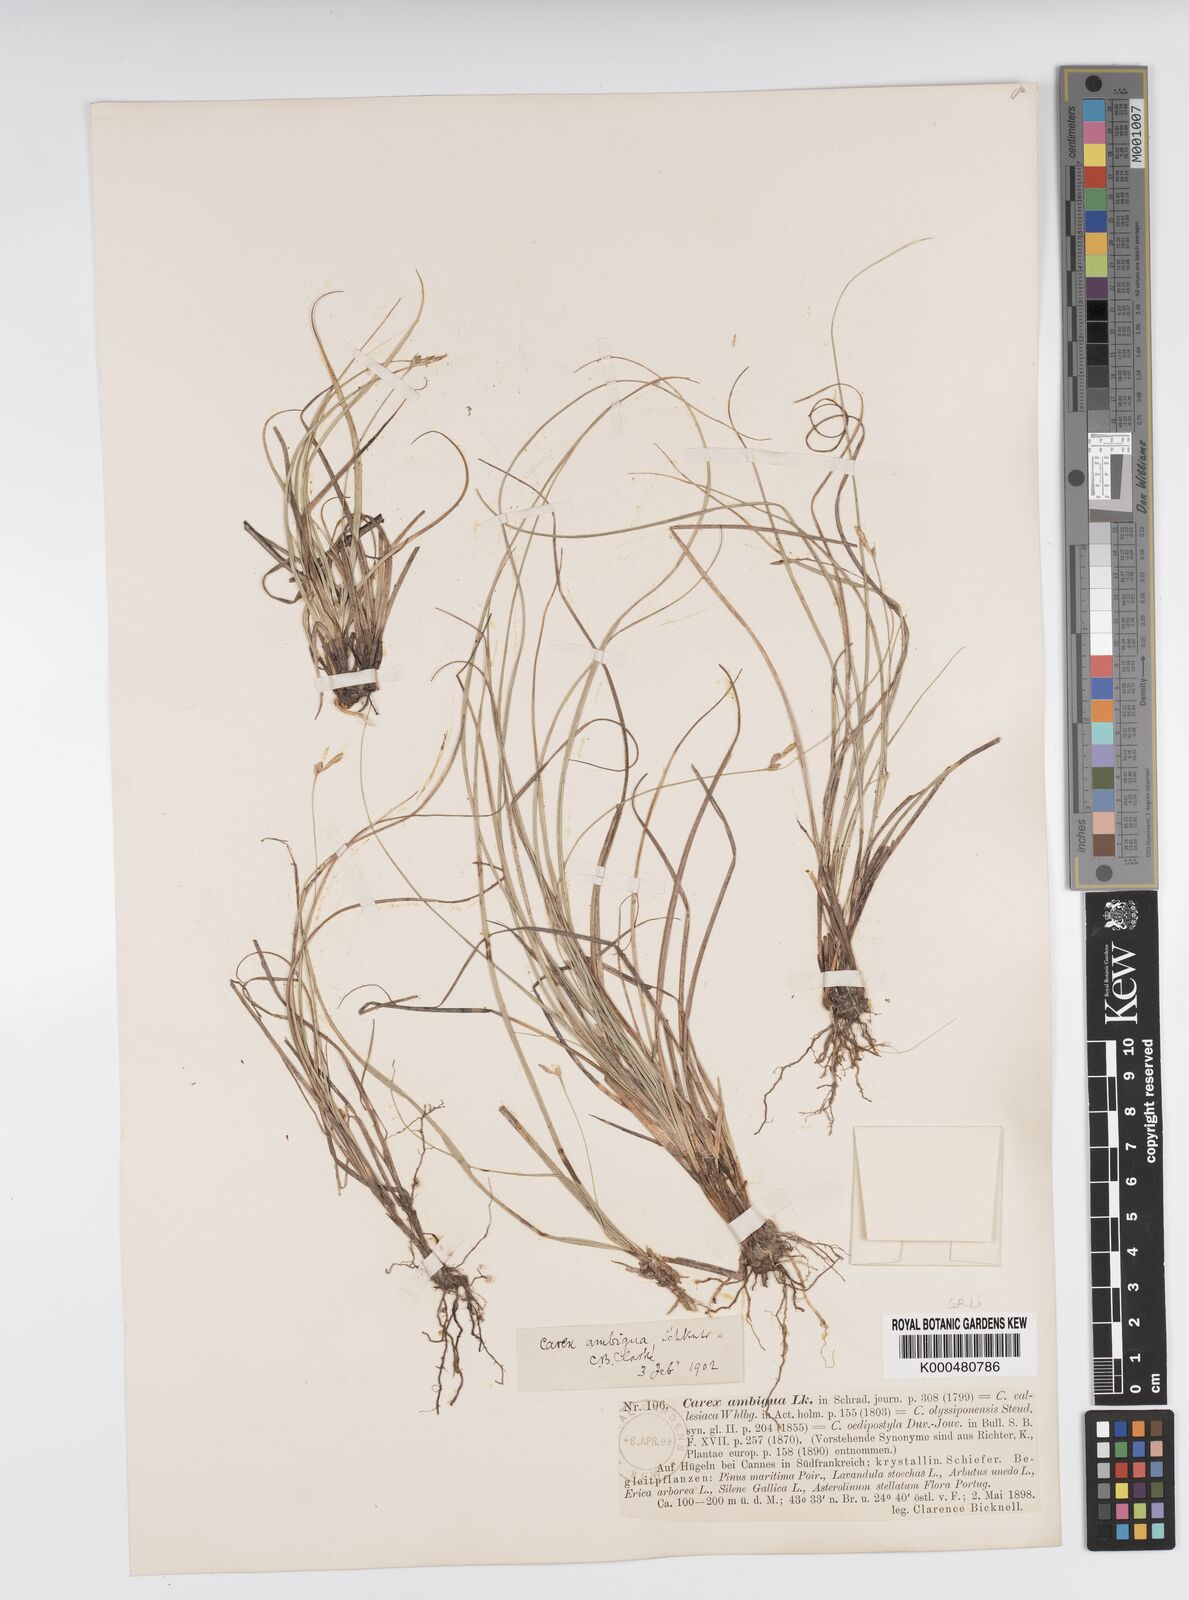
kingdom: Plantae
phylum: Tracheophyta
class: Liliopsida
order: Poales
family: Cyperaceae
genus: Carex
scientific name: Carex
